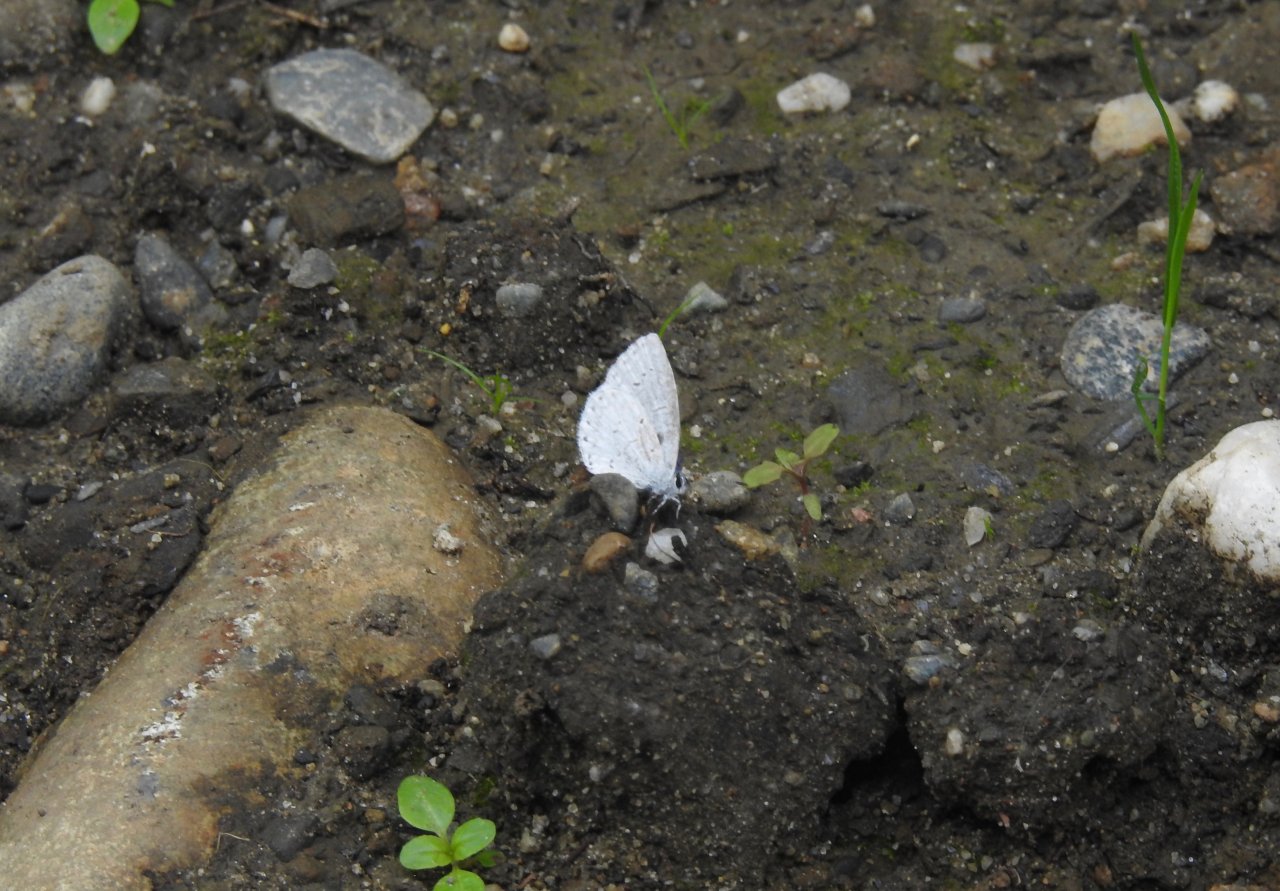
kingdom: Animalia
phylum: Arthropoda
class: Insecta
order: Lepidoptera
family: Lycaenidae
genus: Cyaniris
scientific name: Cyaniris neglecta
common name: Summer Azure
